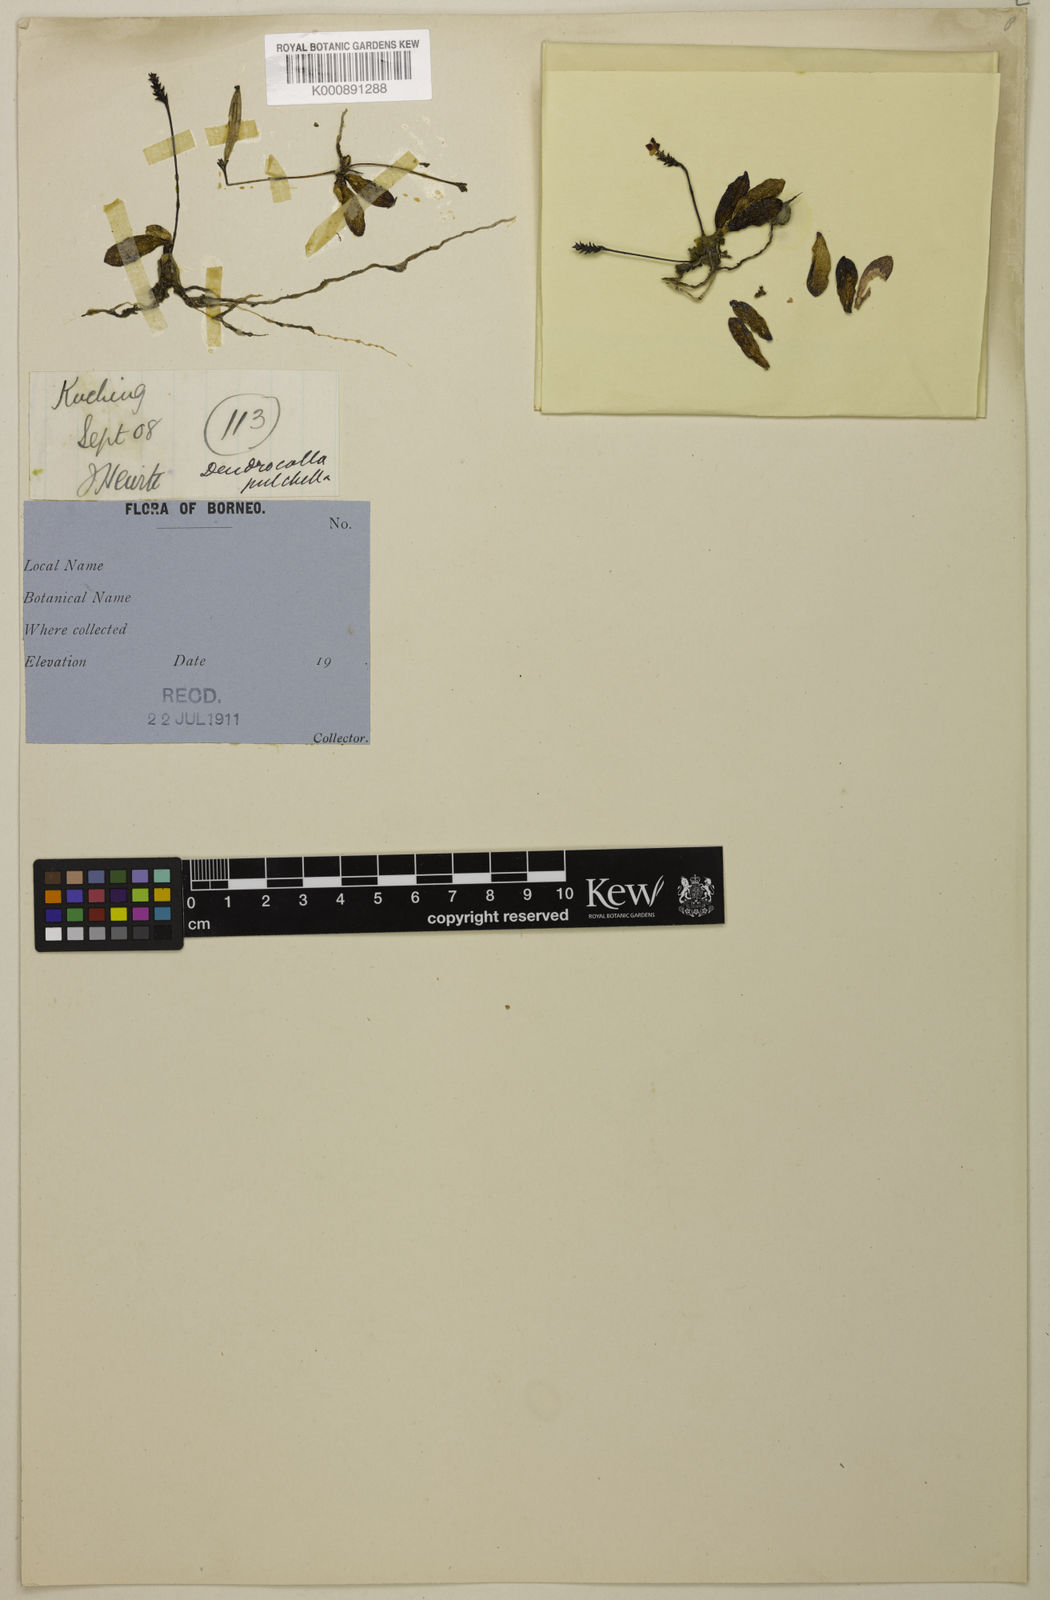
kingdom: Plantae
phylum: Tracheophyta
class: Liliopsida
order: Asparagales
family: Orchidaceae
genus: Thrixspermum
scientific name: Thrixspermum sarawakense
